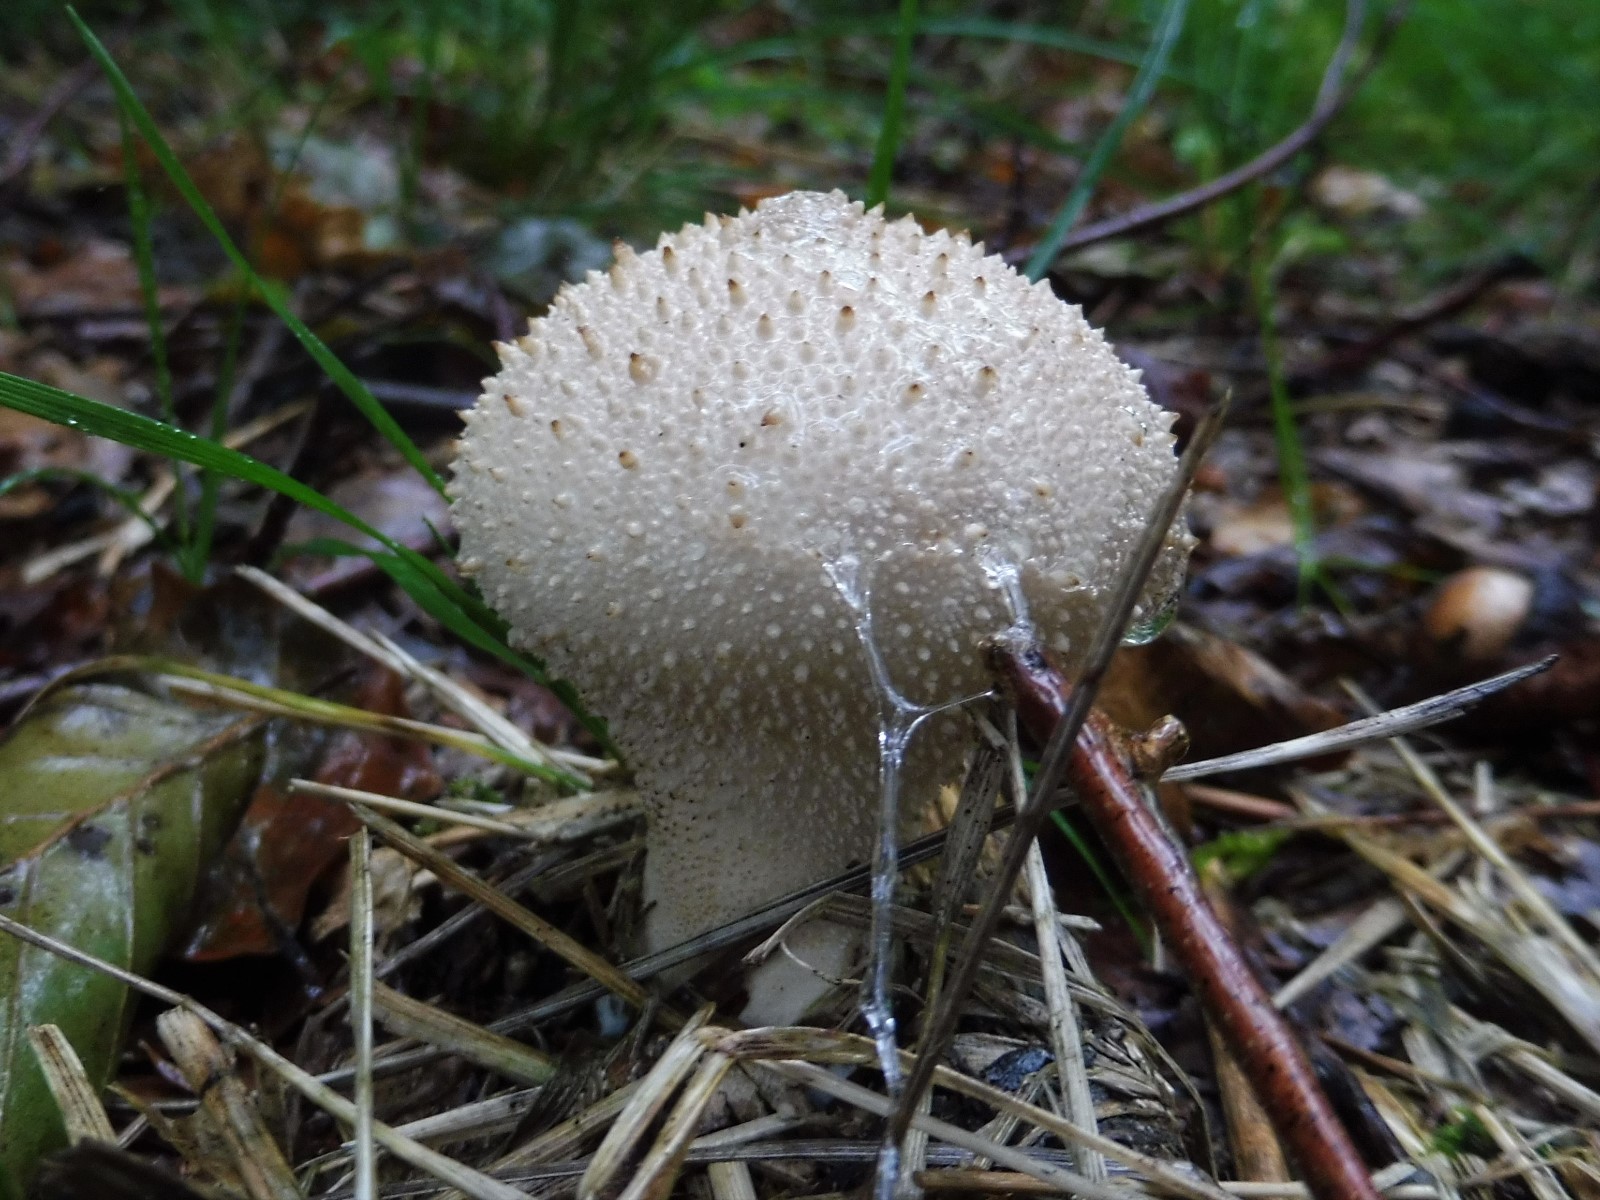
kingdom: Fungi
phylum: Basidiomycota
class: Agaricomycetes
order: Agaricales
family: Lycoperdaceae
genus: Lycoperdon
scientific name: Lycoperdon perlatum
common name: krystal-støvbold
